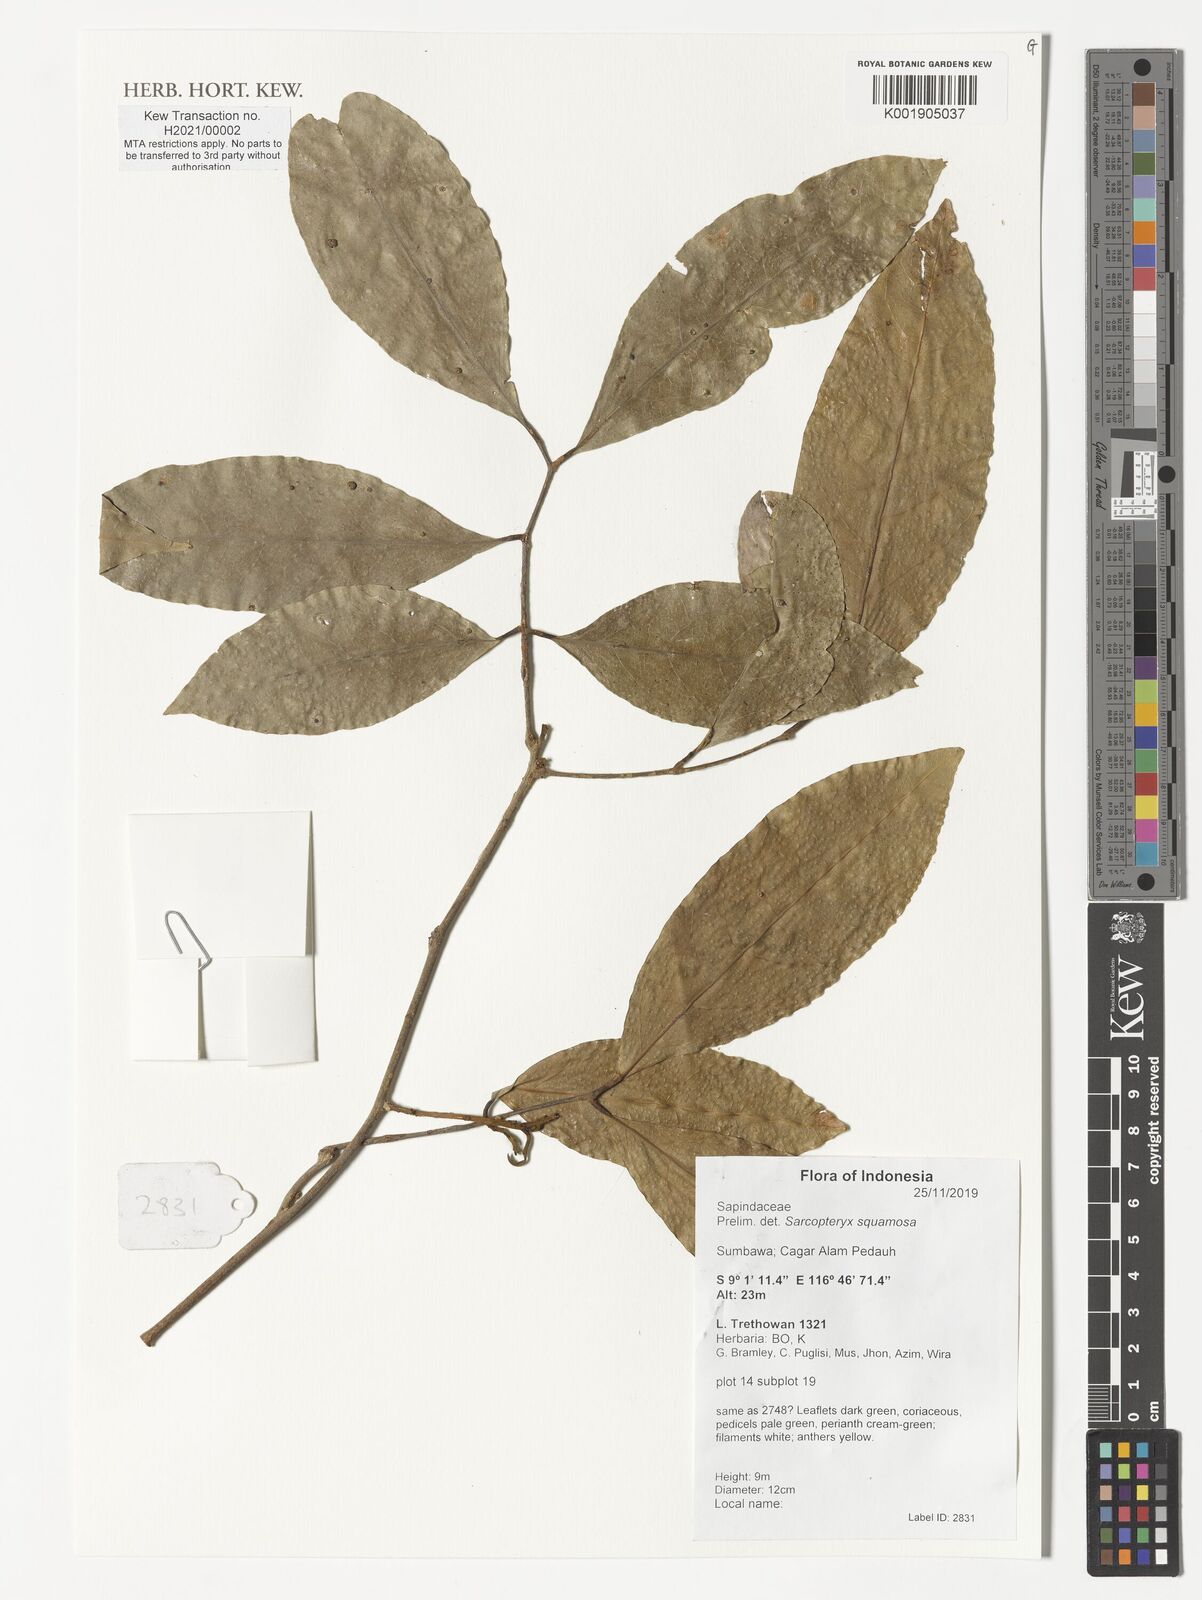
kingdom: Plantae
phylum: Tracheophyta
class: Magnoliopsida
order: Sapindales
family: Sapindaceae
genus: Sarcopteryx
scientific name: Sarcopteryx squamosa
